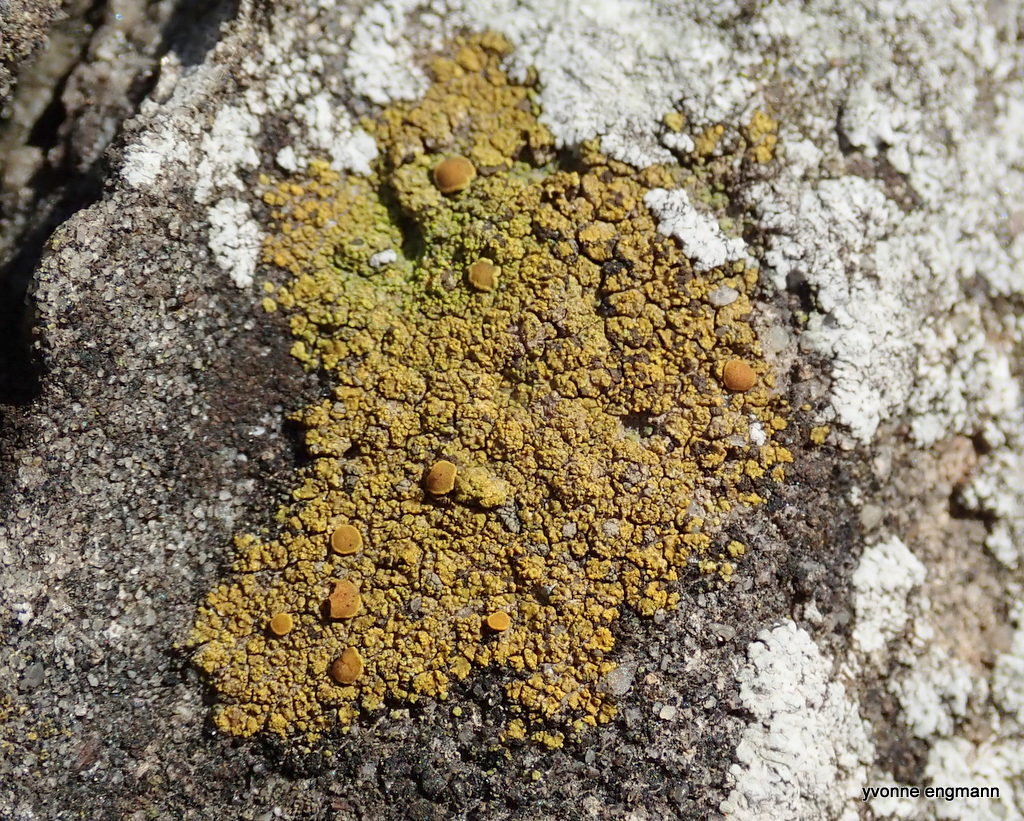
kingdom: Fungi
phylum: Ascomycota
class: Candelariomycetes
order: Candelariales
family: Candelariaceae
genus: Candelariella
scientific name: Candelariella vitellina
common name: almindelig æggeblommelav
